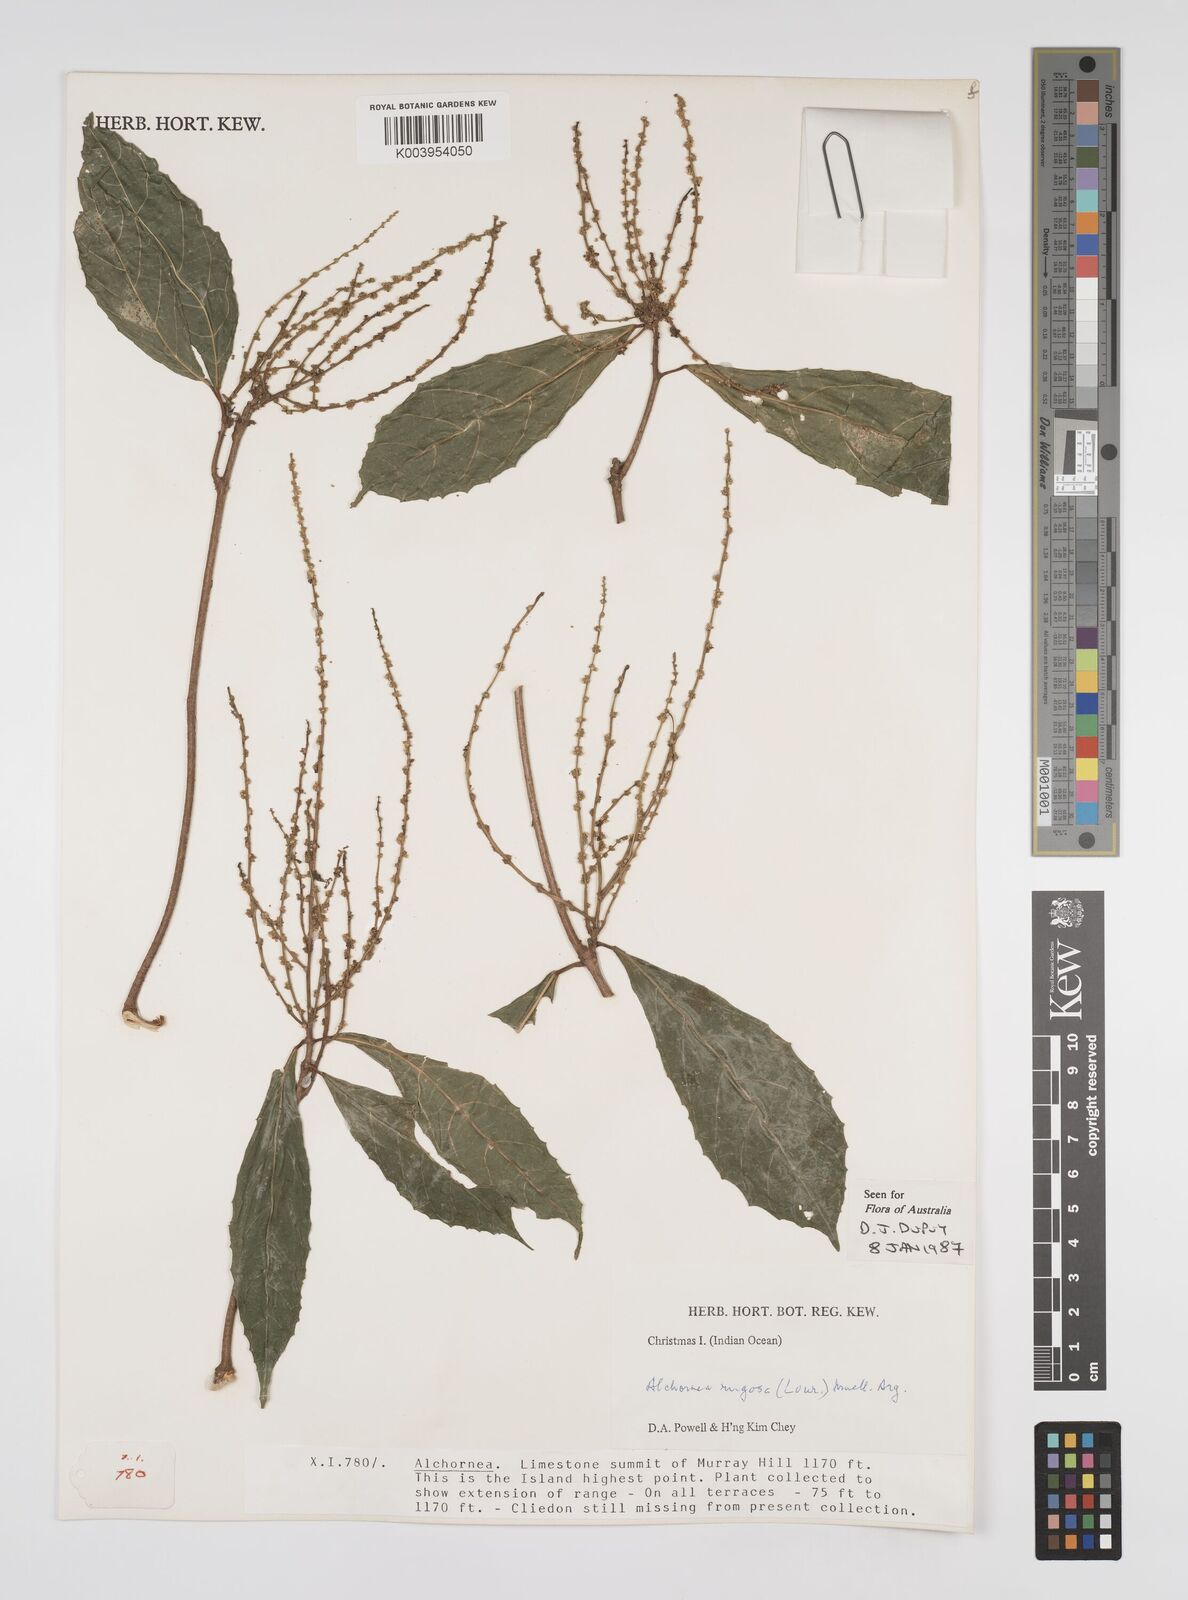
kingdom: Plantae
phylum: Tracheophyta
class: Magnoliopsida
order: Malpighiales
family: Euphorbiaceae
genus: Alchornea
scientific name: Alchornea rugosa
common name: Alchorntree
